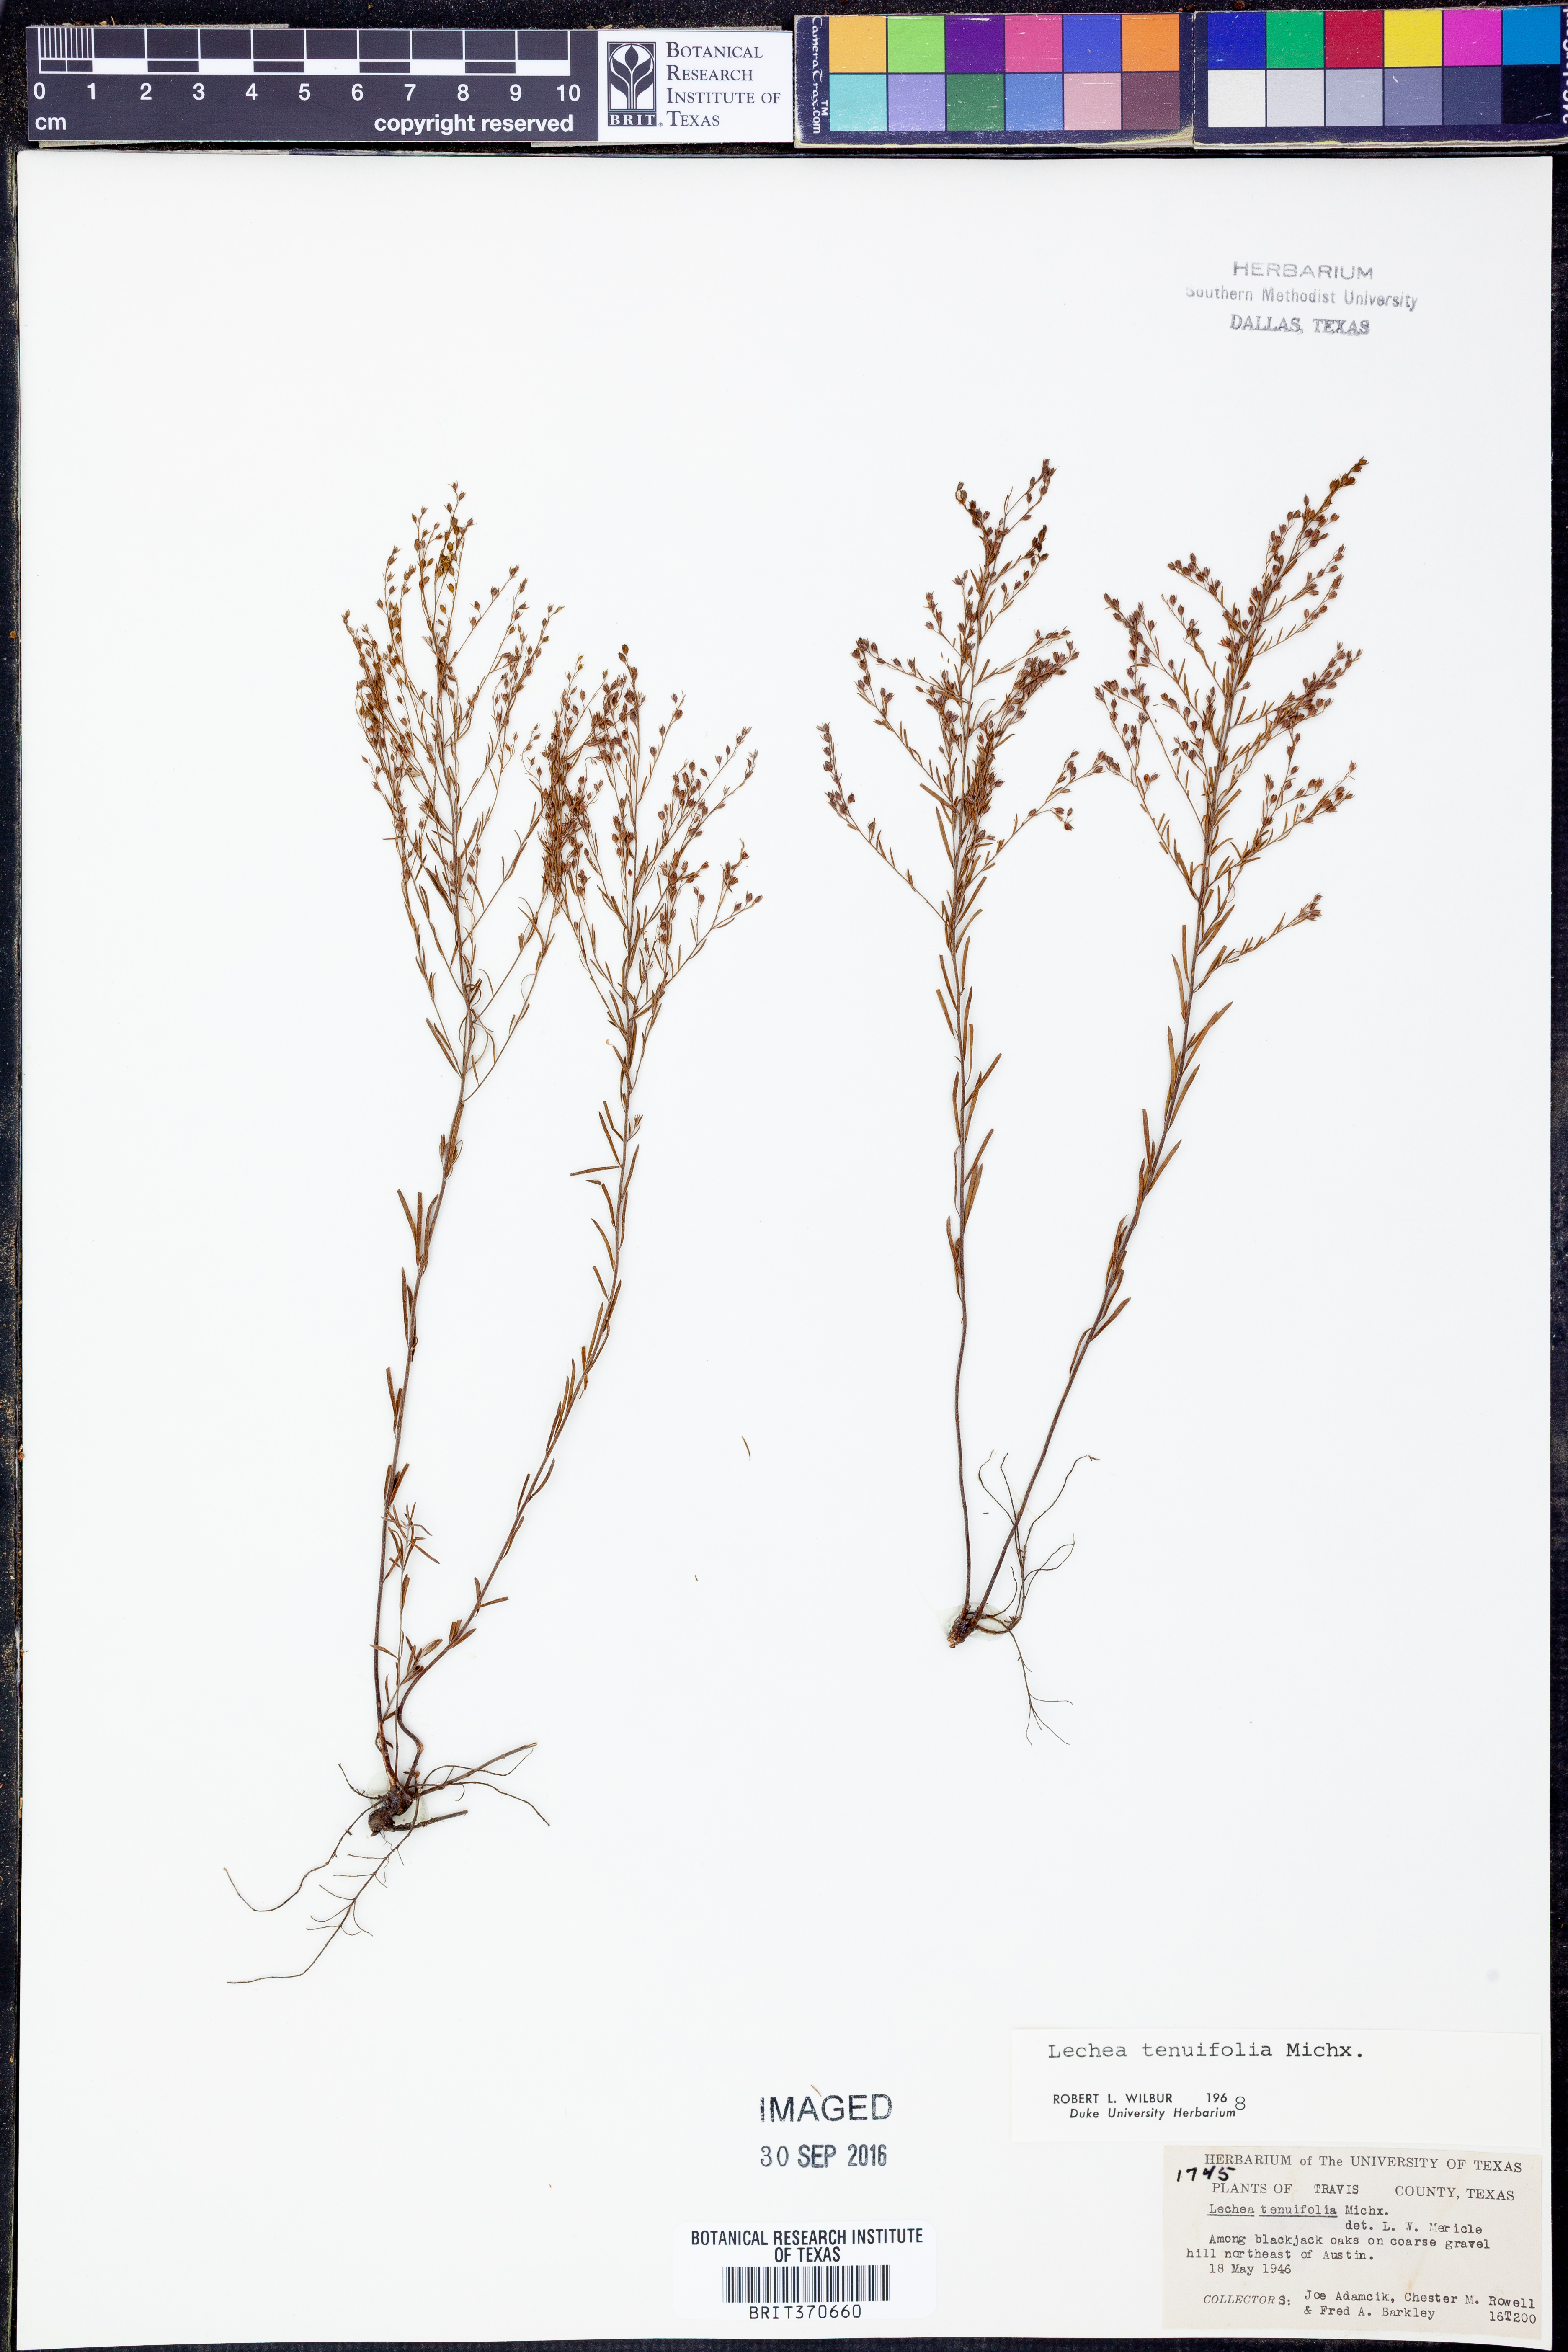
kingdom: Plantae
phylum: Tracheophyta
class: Magnoliopsida
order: Malvales
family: Cistaceae
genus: Lechea
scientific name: Lechea tenuifolia
